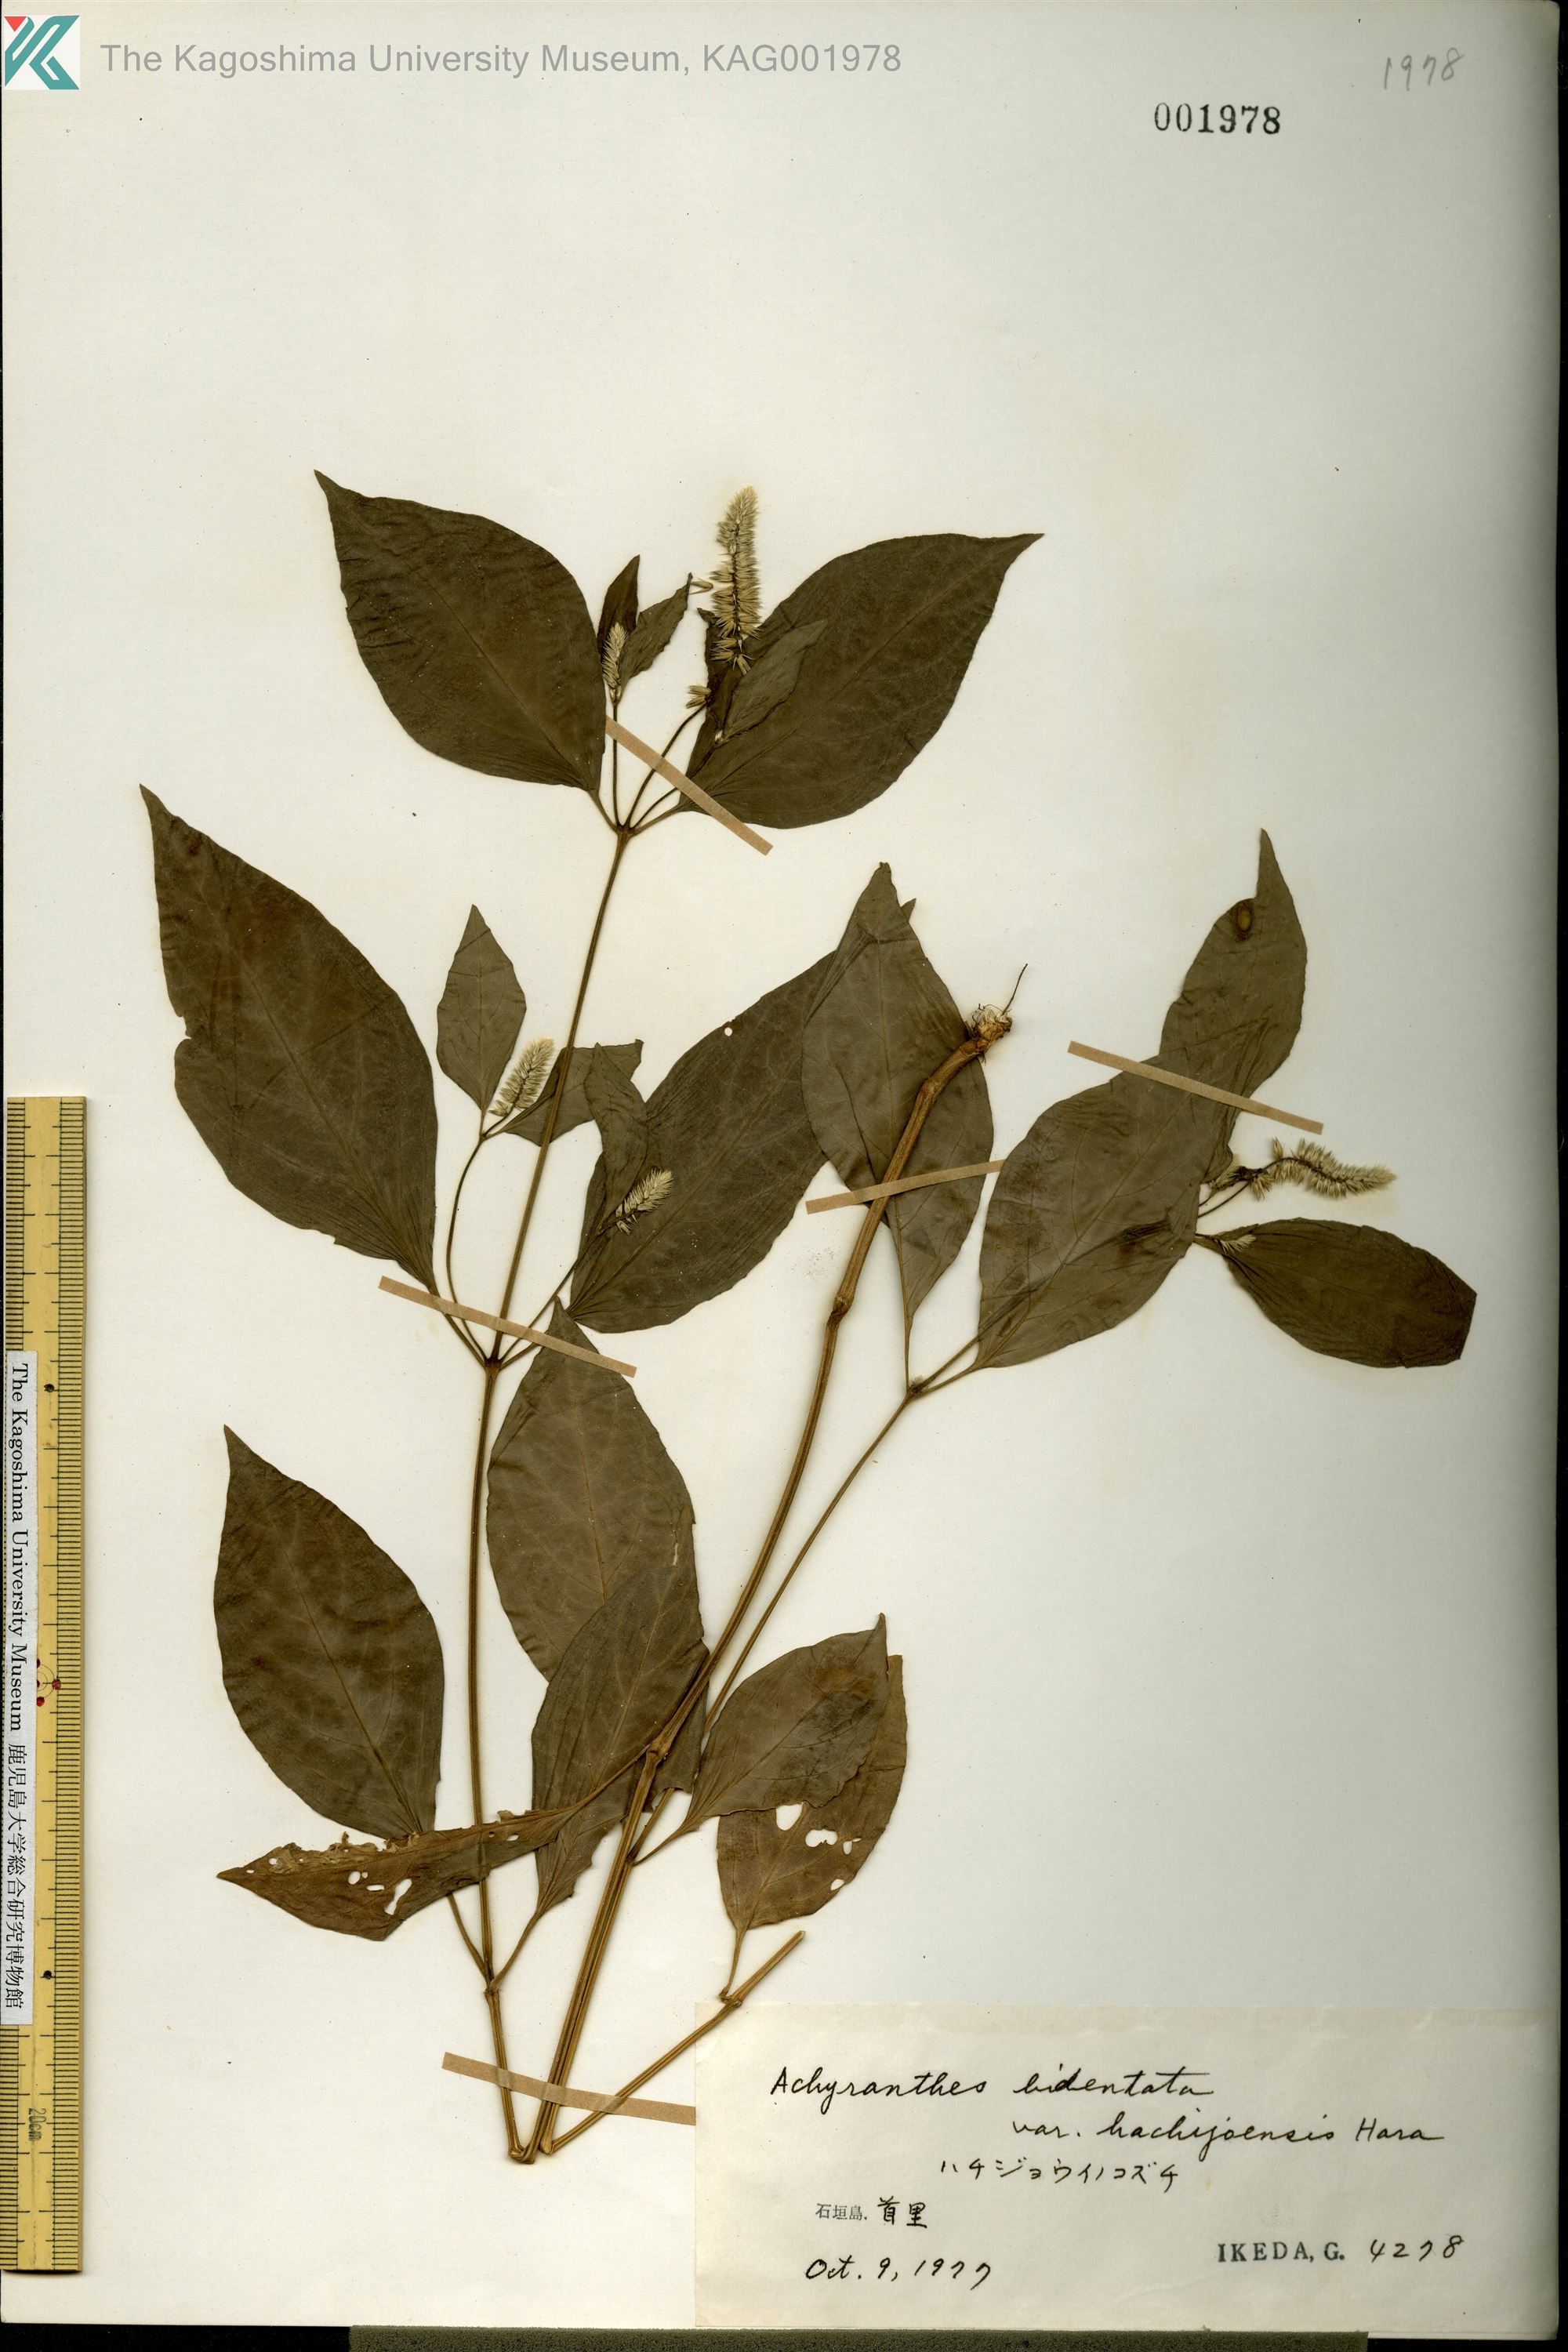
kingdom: Plantae
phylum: Tracheophyta
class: Magnoliopsida
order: Caryophyllales
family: Amaranthaceae
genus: Achyranthes
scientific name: Achyranthes bidentata
